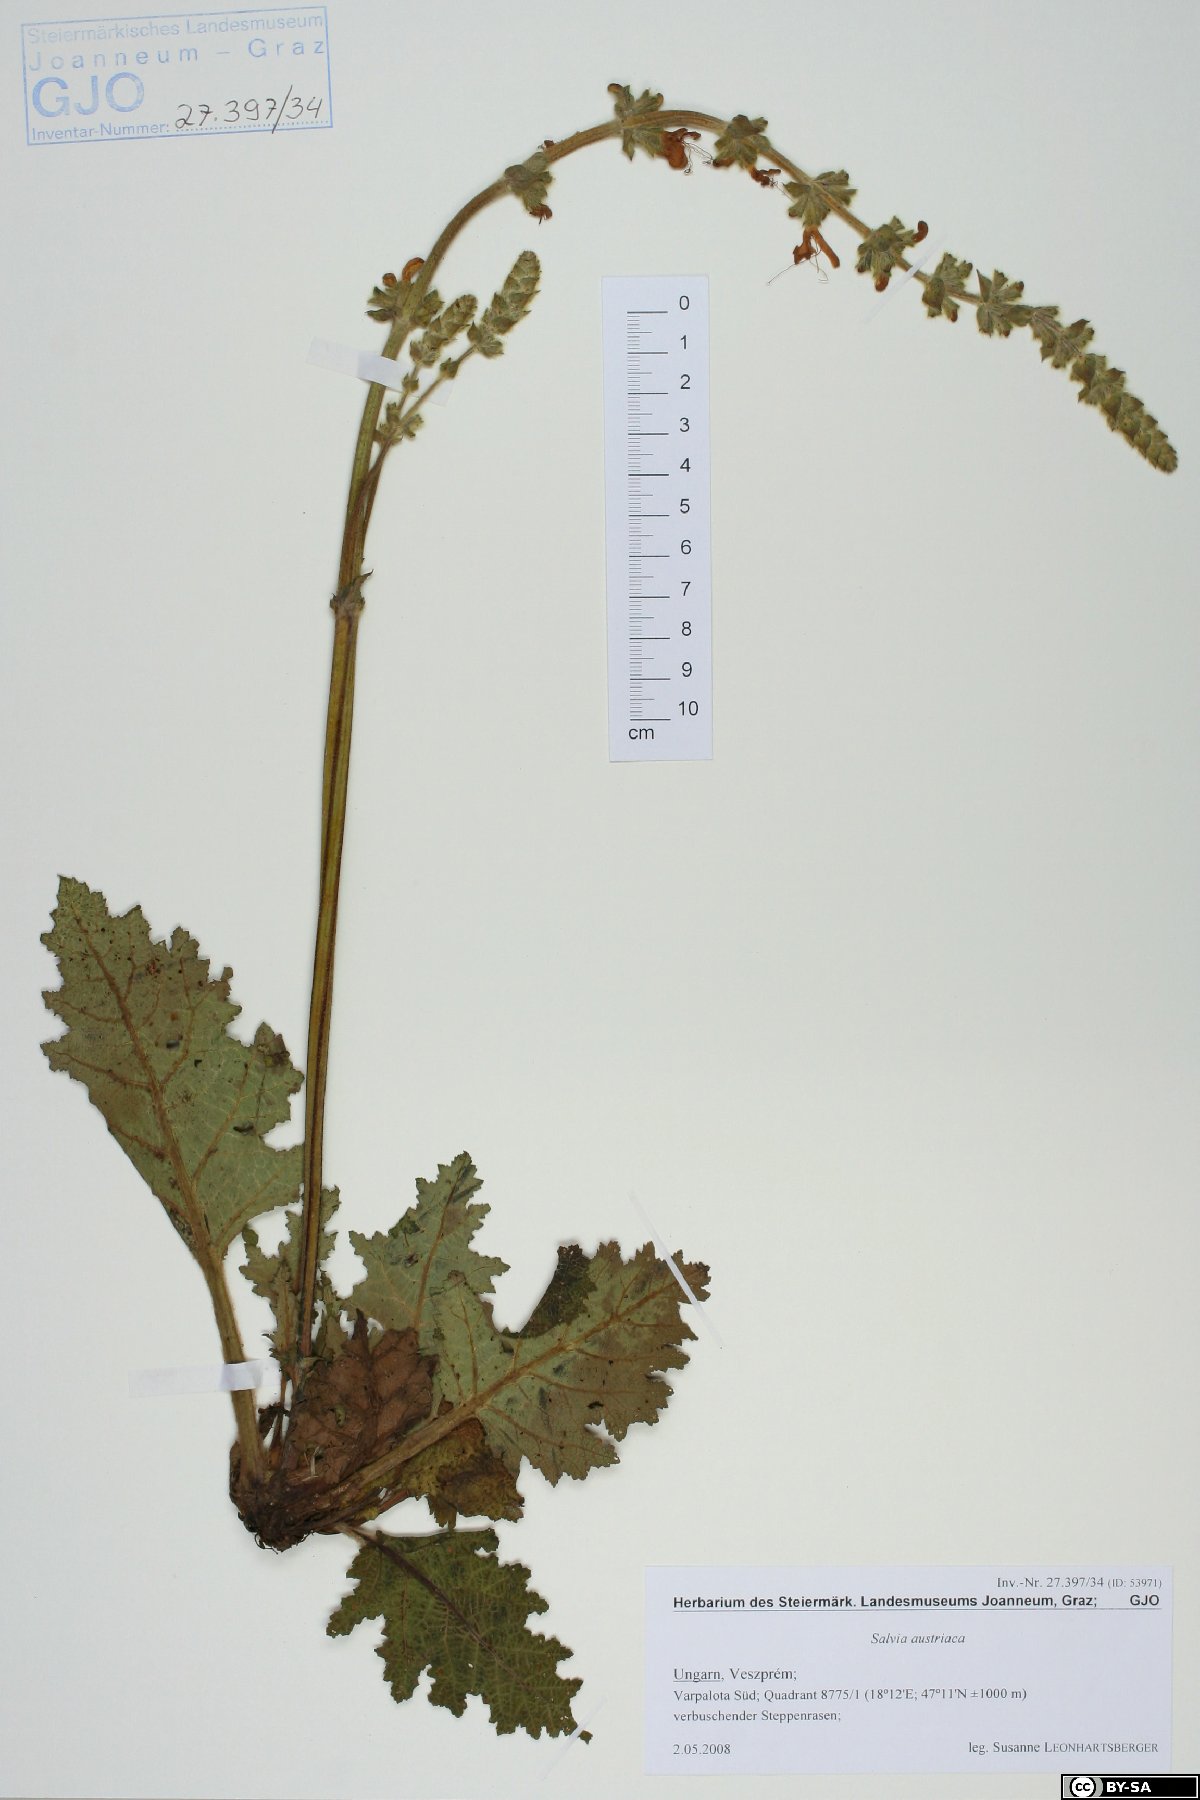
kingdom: Plantae
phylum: Tracheophyta
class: Magnoliopsida
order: Lamiales
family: Lamiaceae
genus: Salvia
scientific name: Salvia austriaca
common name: Austrian sage
